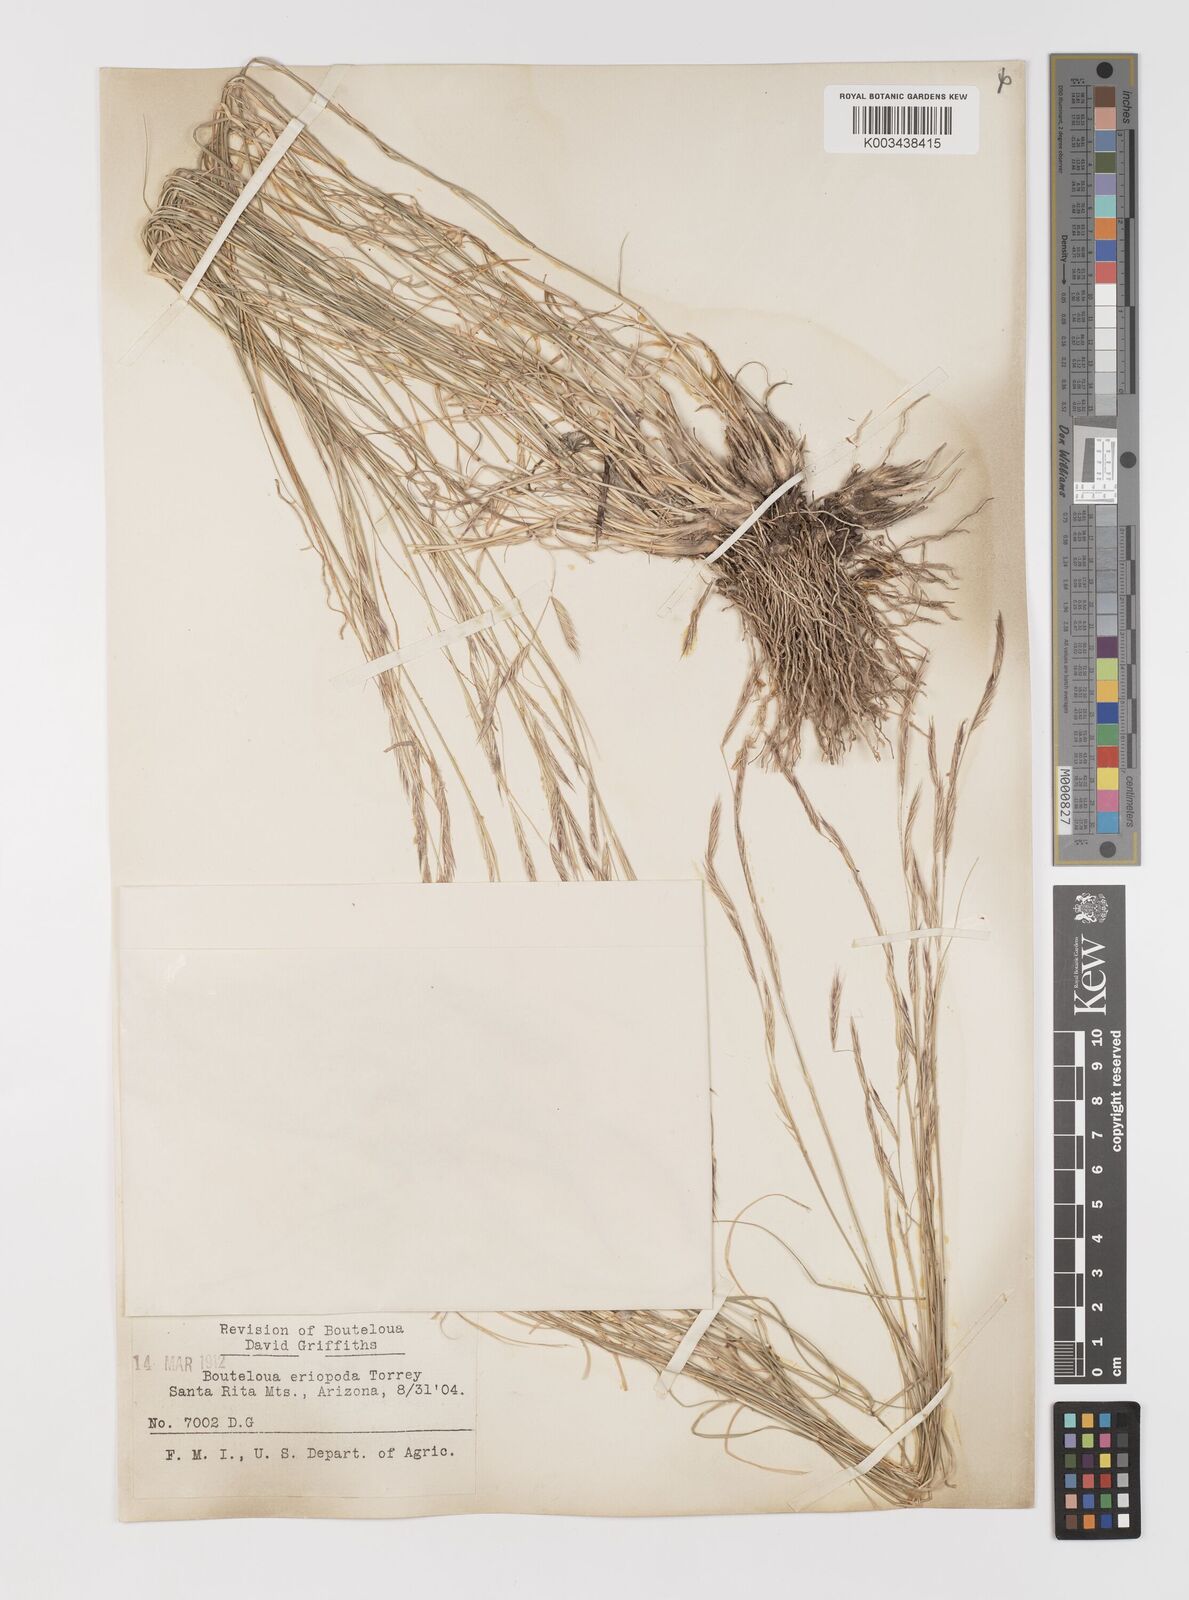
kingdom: Plantae
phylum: Tracheophyta
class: Liliopsida
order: Poales
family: Poaceae
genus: Bouteloua
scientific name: Bouteloua eriopoda
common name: Woolly foot grama
